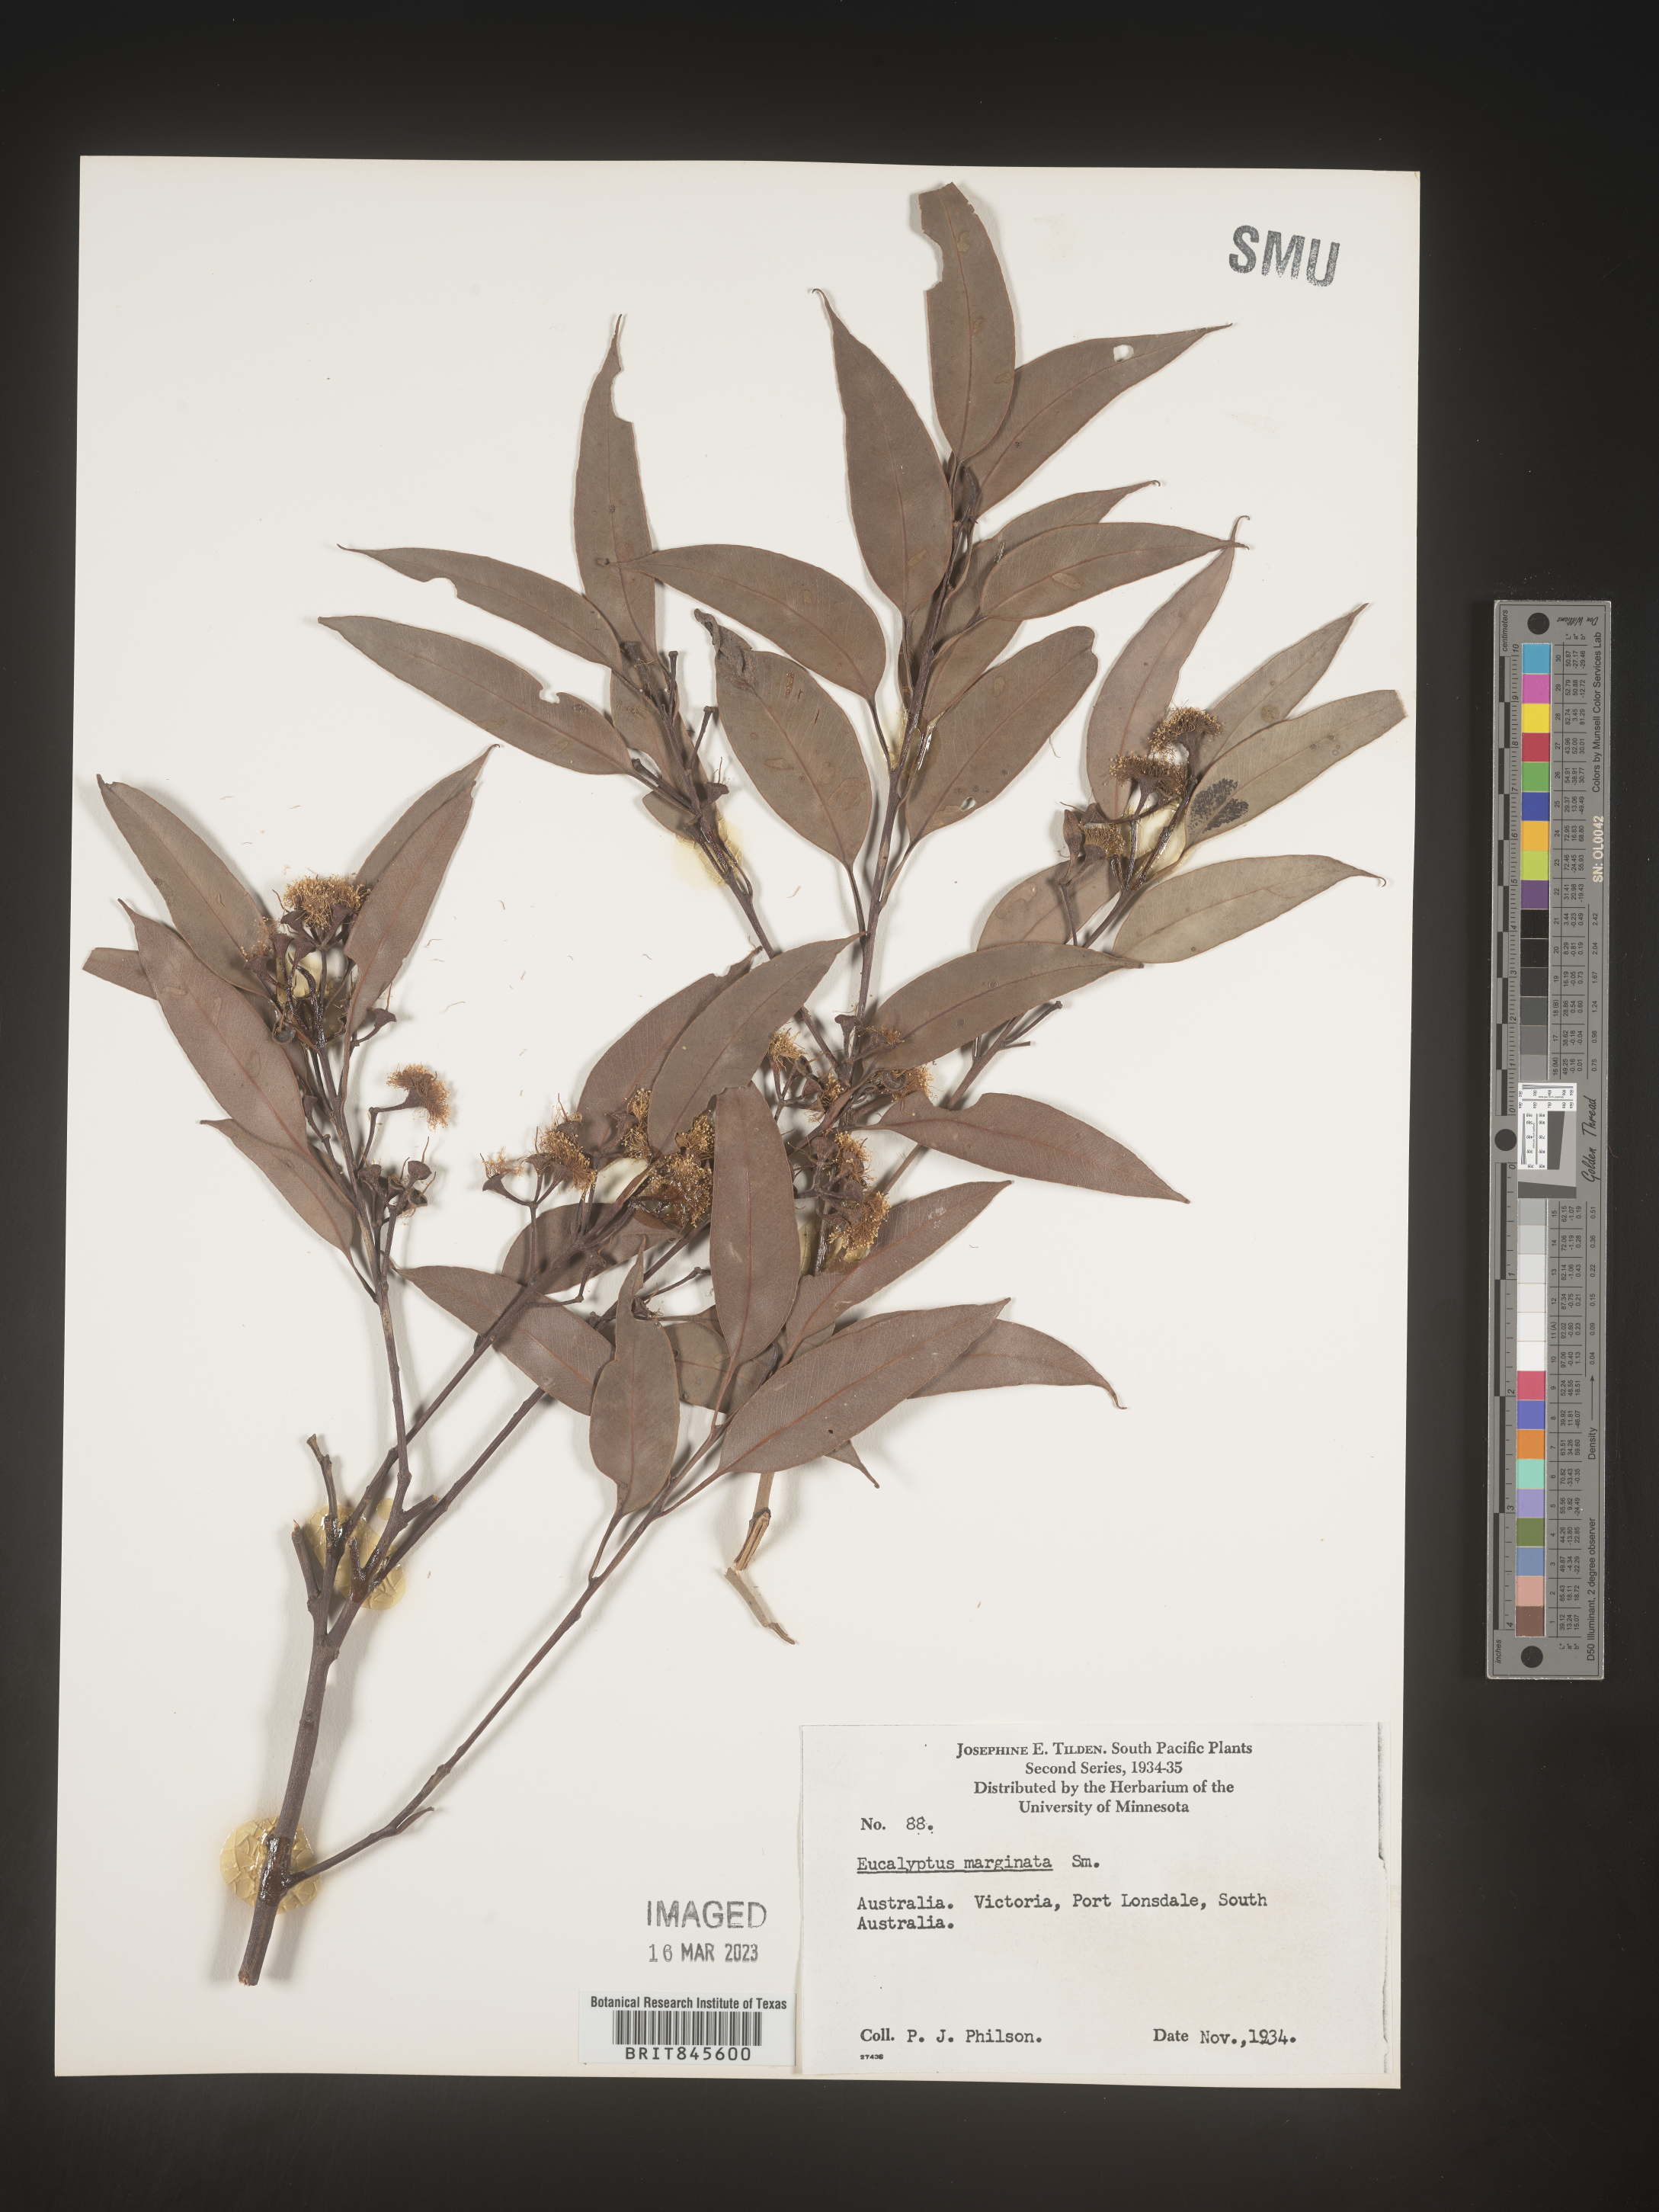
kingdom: Plantae
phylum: Tracheophyta
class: Magnoliopsida
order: Myrtales
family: Myrtaceae
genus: Eucalyptus
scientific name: Eucalyptus
